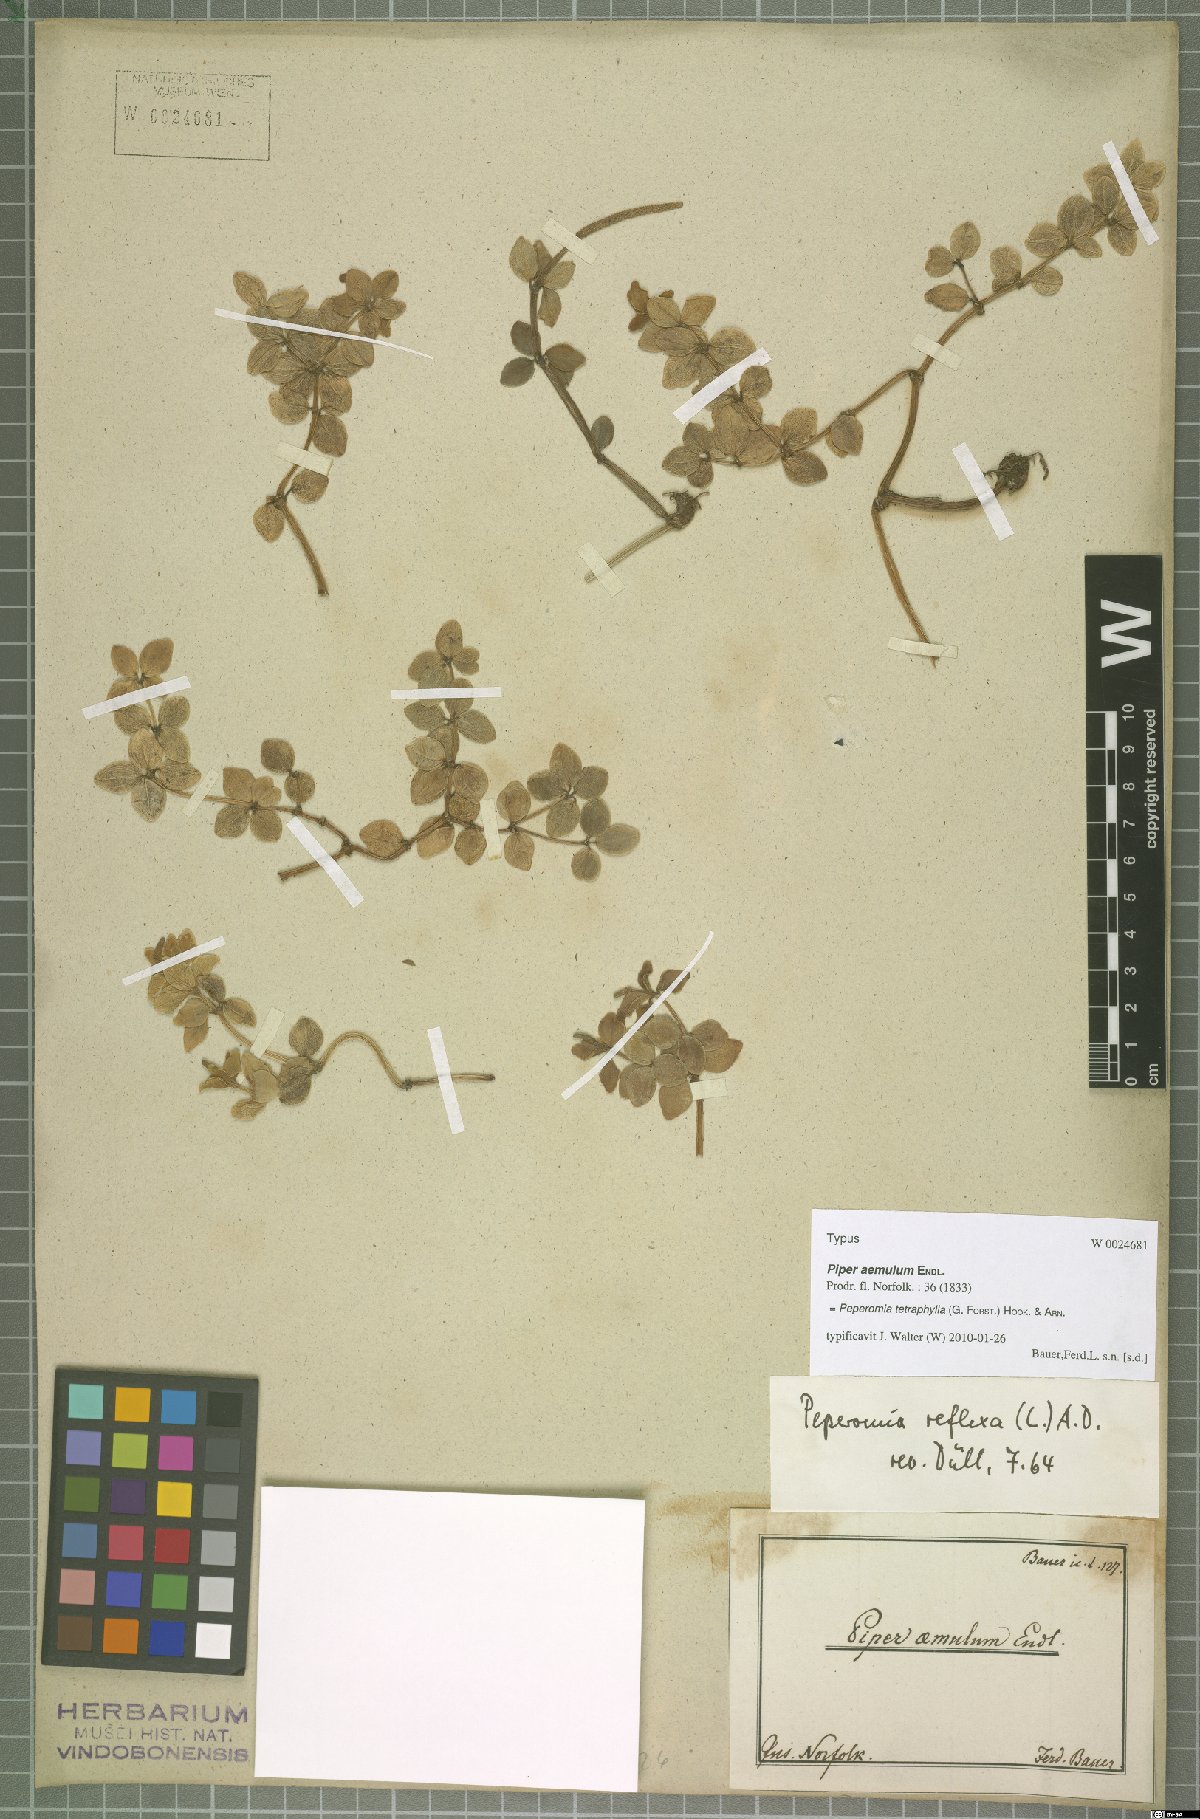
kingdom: Plantae
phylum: Tracheophyta
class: Magnoliopsida
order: Piperales
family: Piperaceae
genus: Peperomia
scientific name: Peperomia tetraphylla
